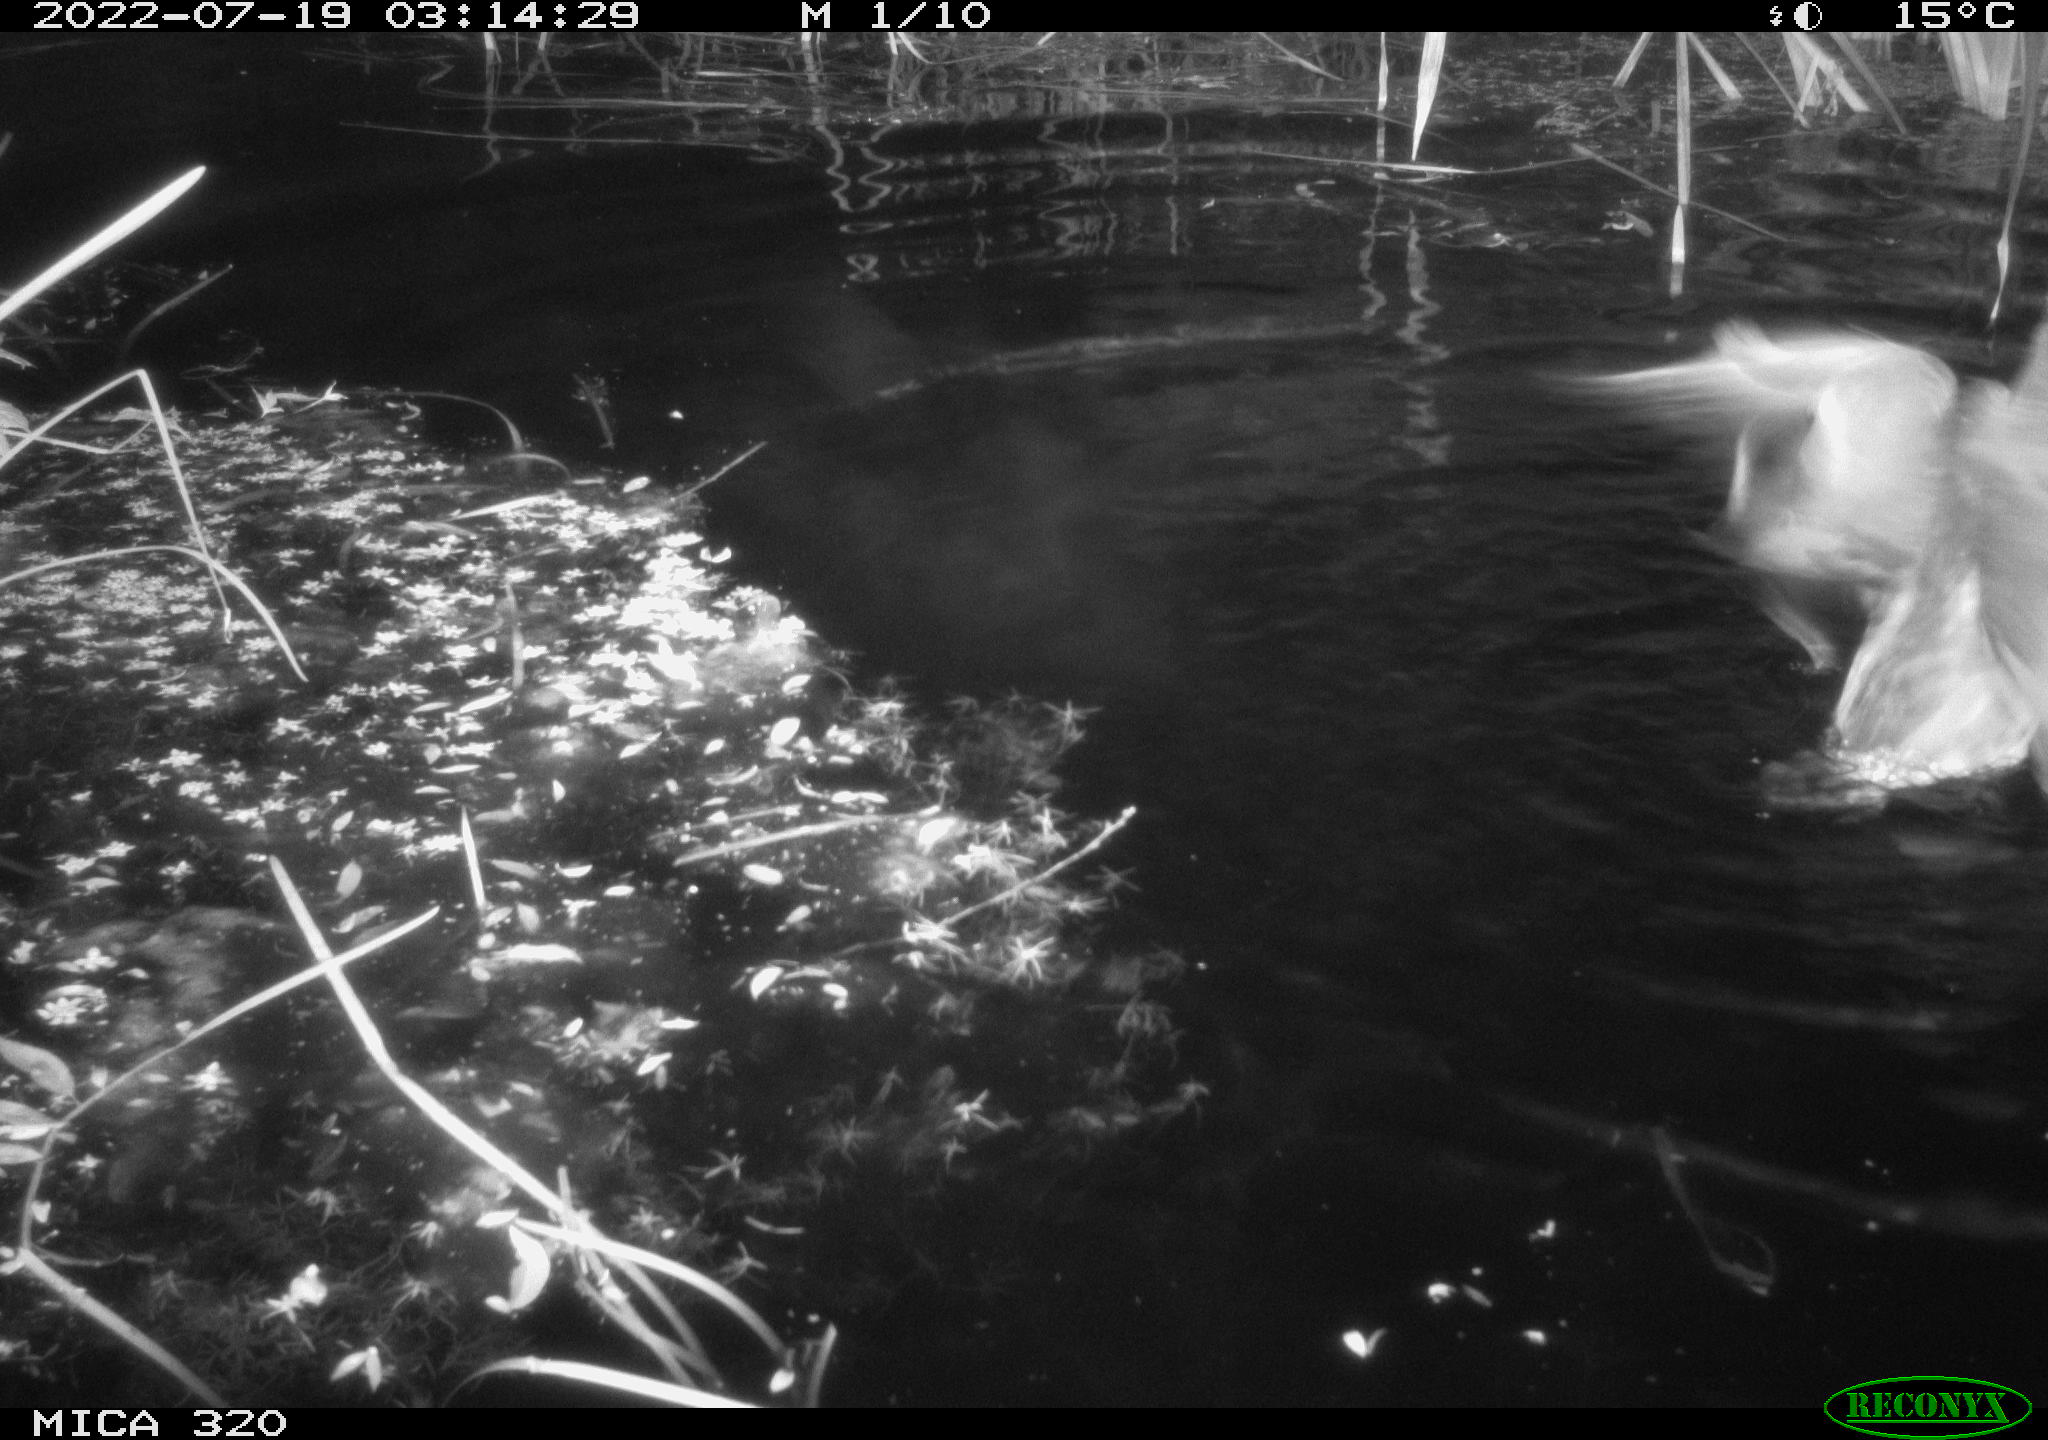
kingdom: Animalia
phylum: Chordata
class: Aves
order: Anseriformes
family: Anatidae
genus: Anas
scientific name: Anas platyrhynchos
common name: Mallard
